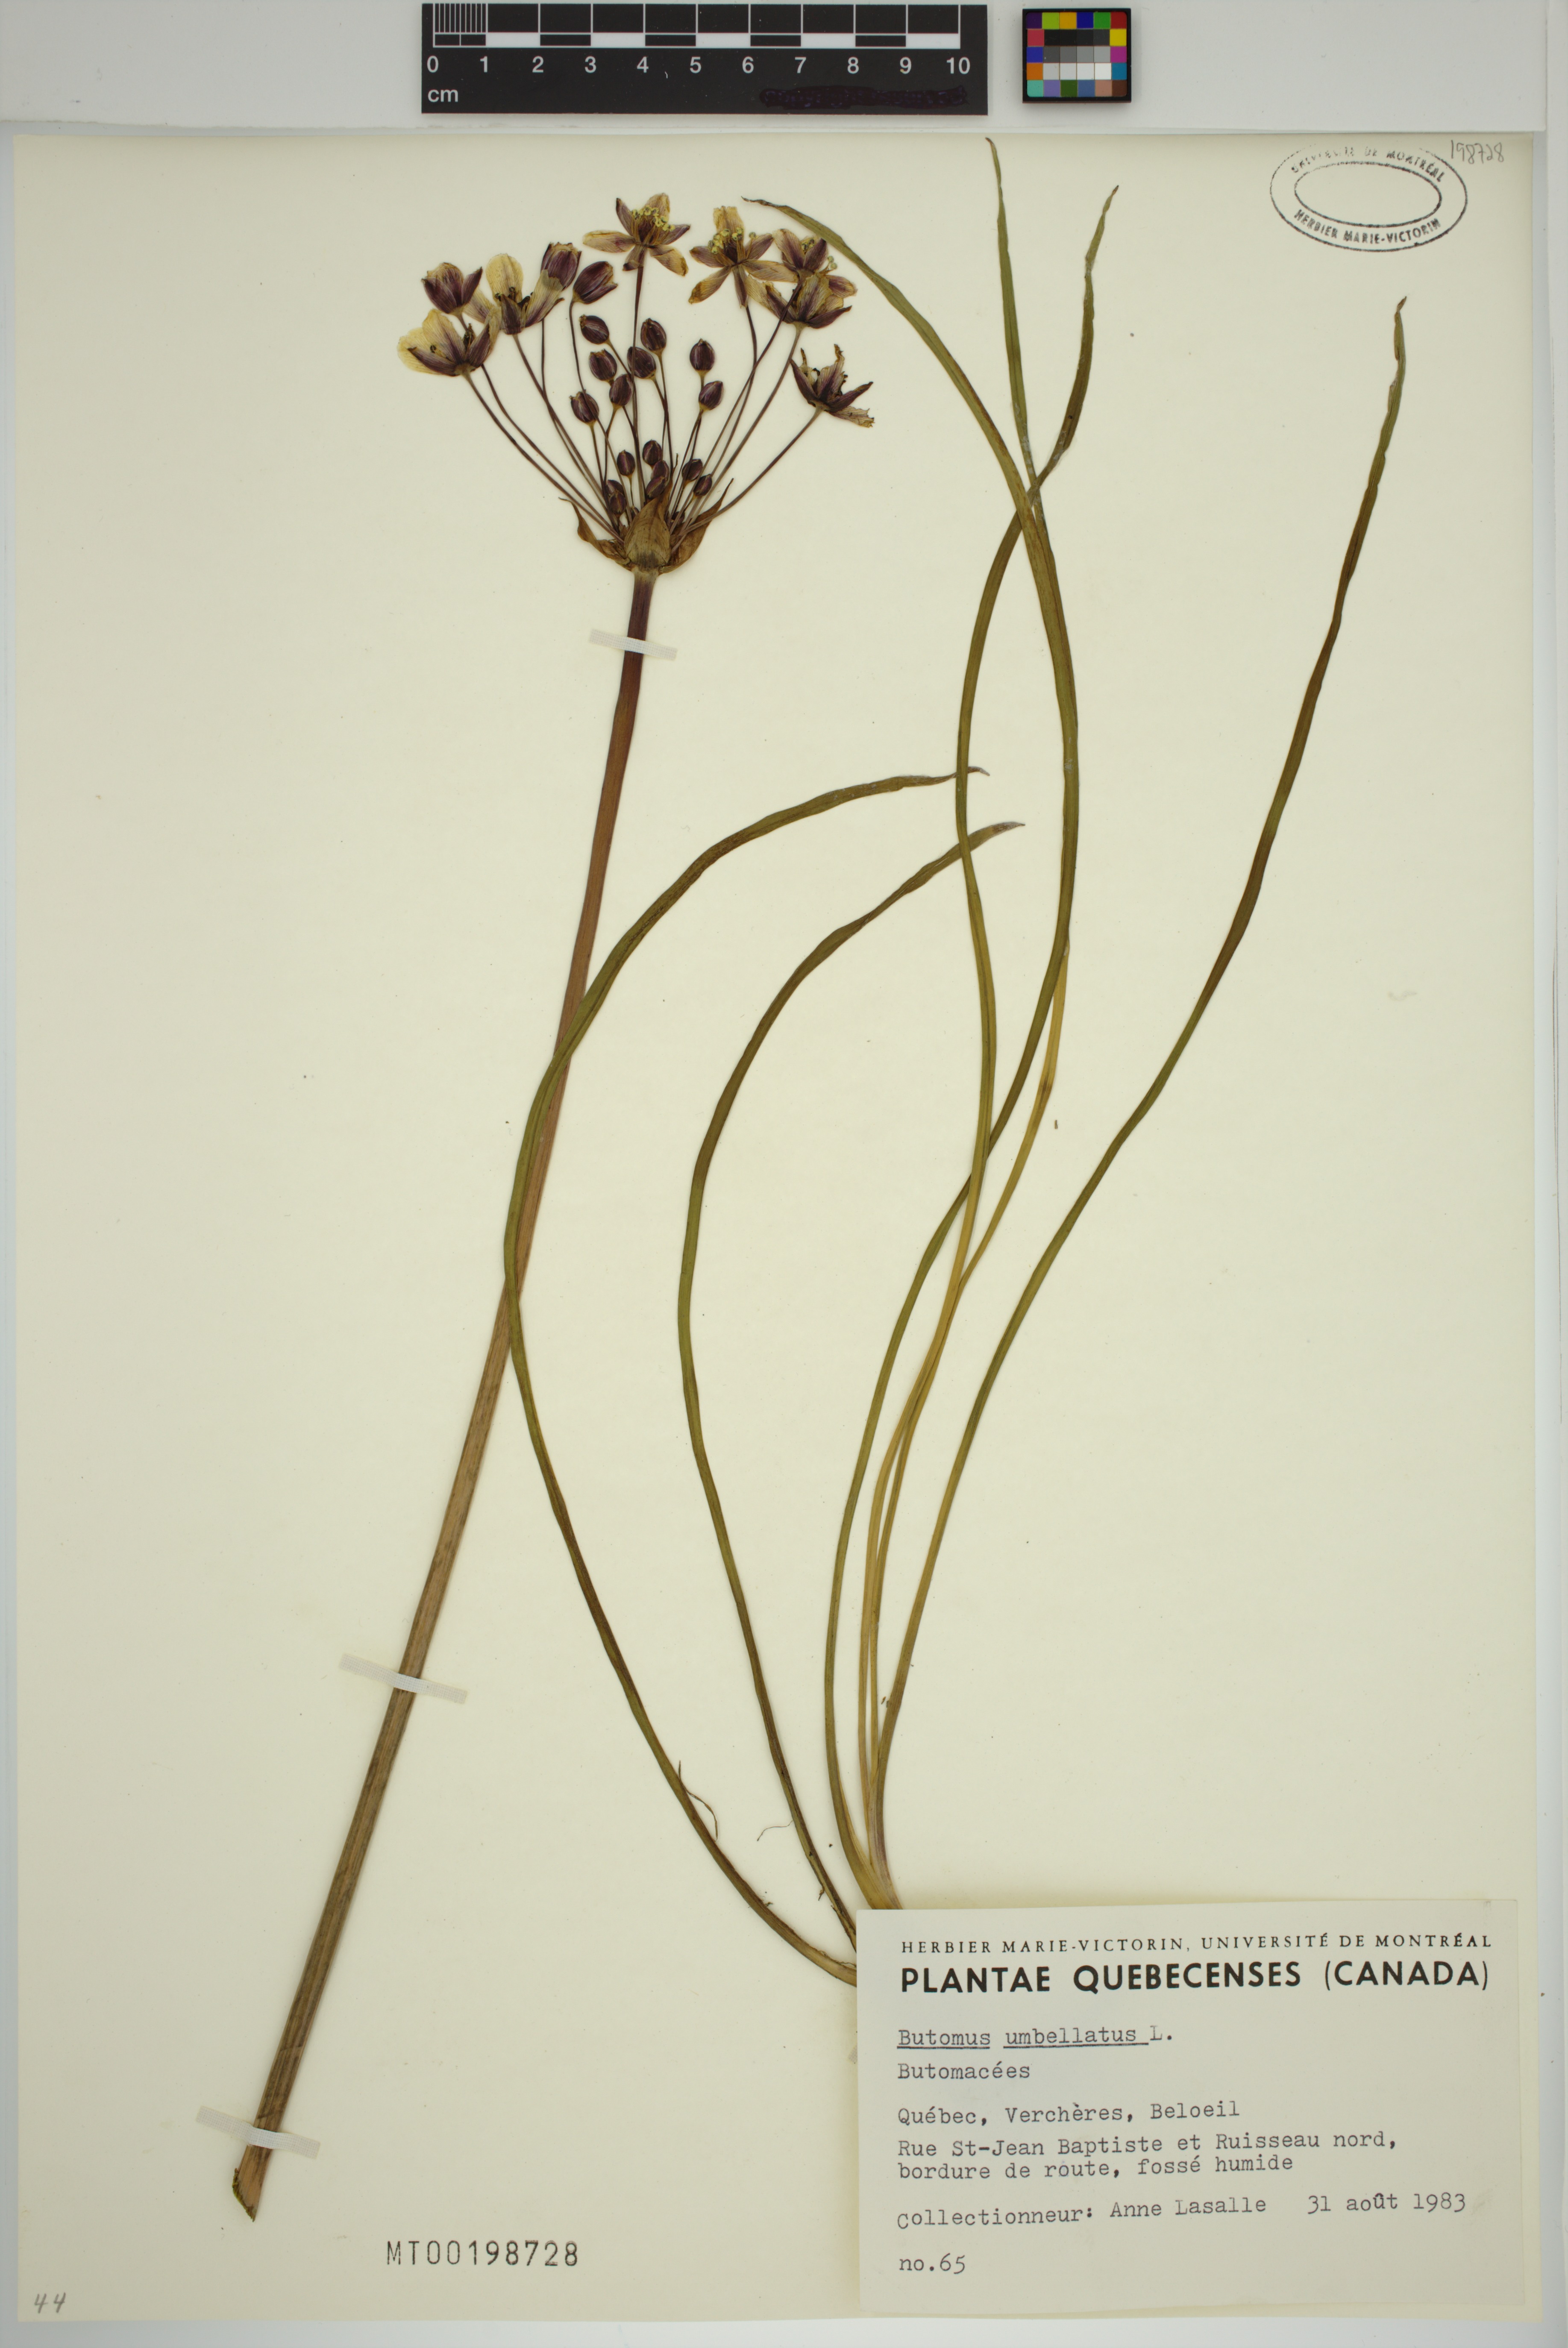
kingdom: Plantae
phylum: Tracheophyta
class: Liliopsida
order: Alismatales
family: Butomaceae
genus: Butomus
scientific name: Butomus umbellatus
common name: Flowering-rush
